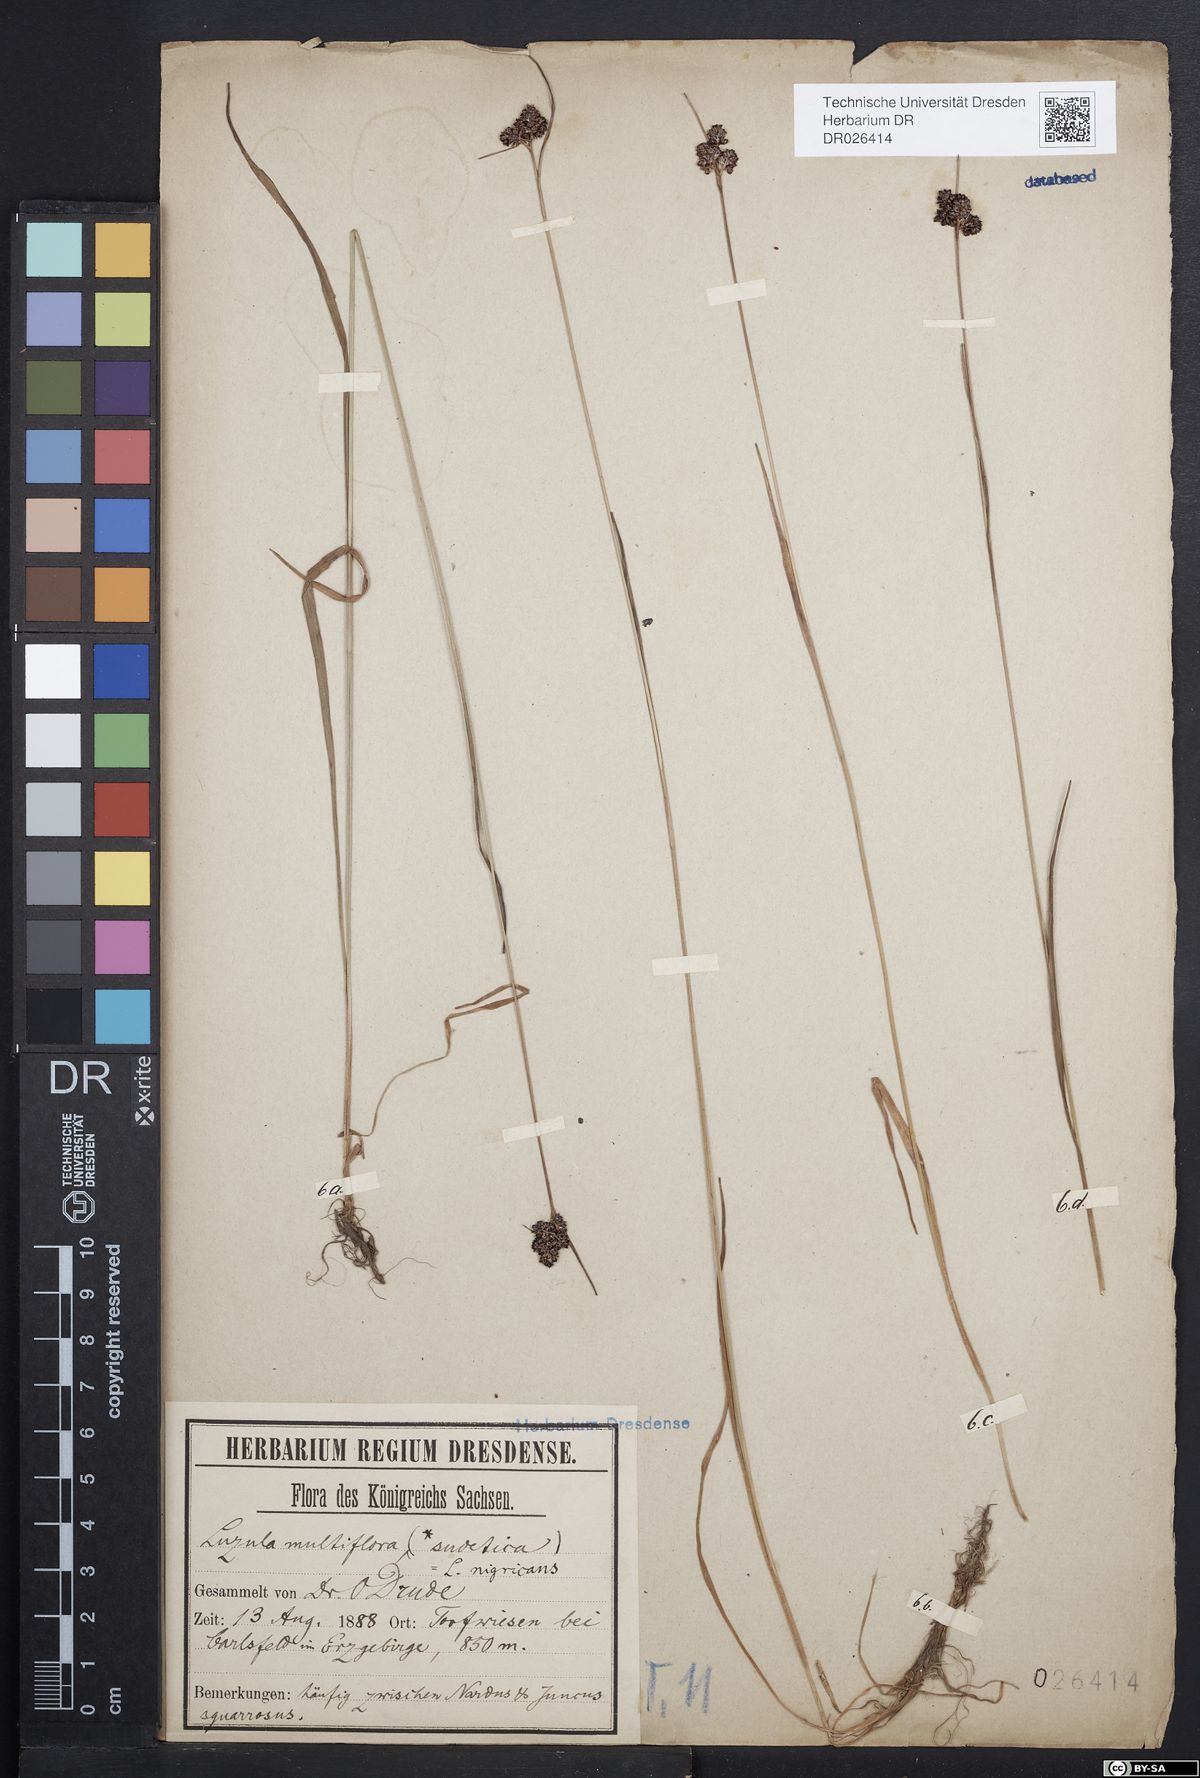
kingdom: Plantae
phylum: Tracheophyta
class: Liliopsida
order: Poales
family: Juncaceae
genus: Luzula
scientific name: Luzula sudetica
